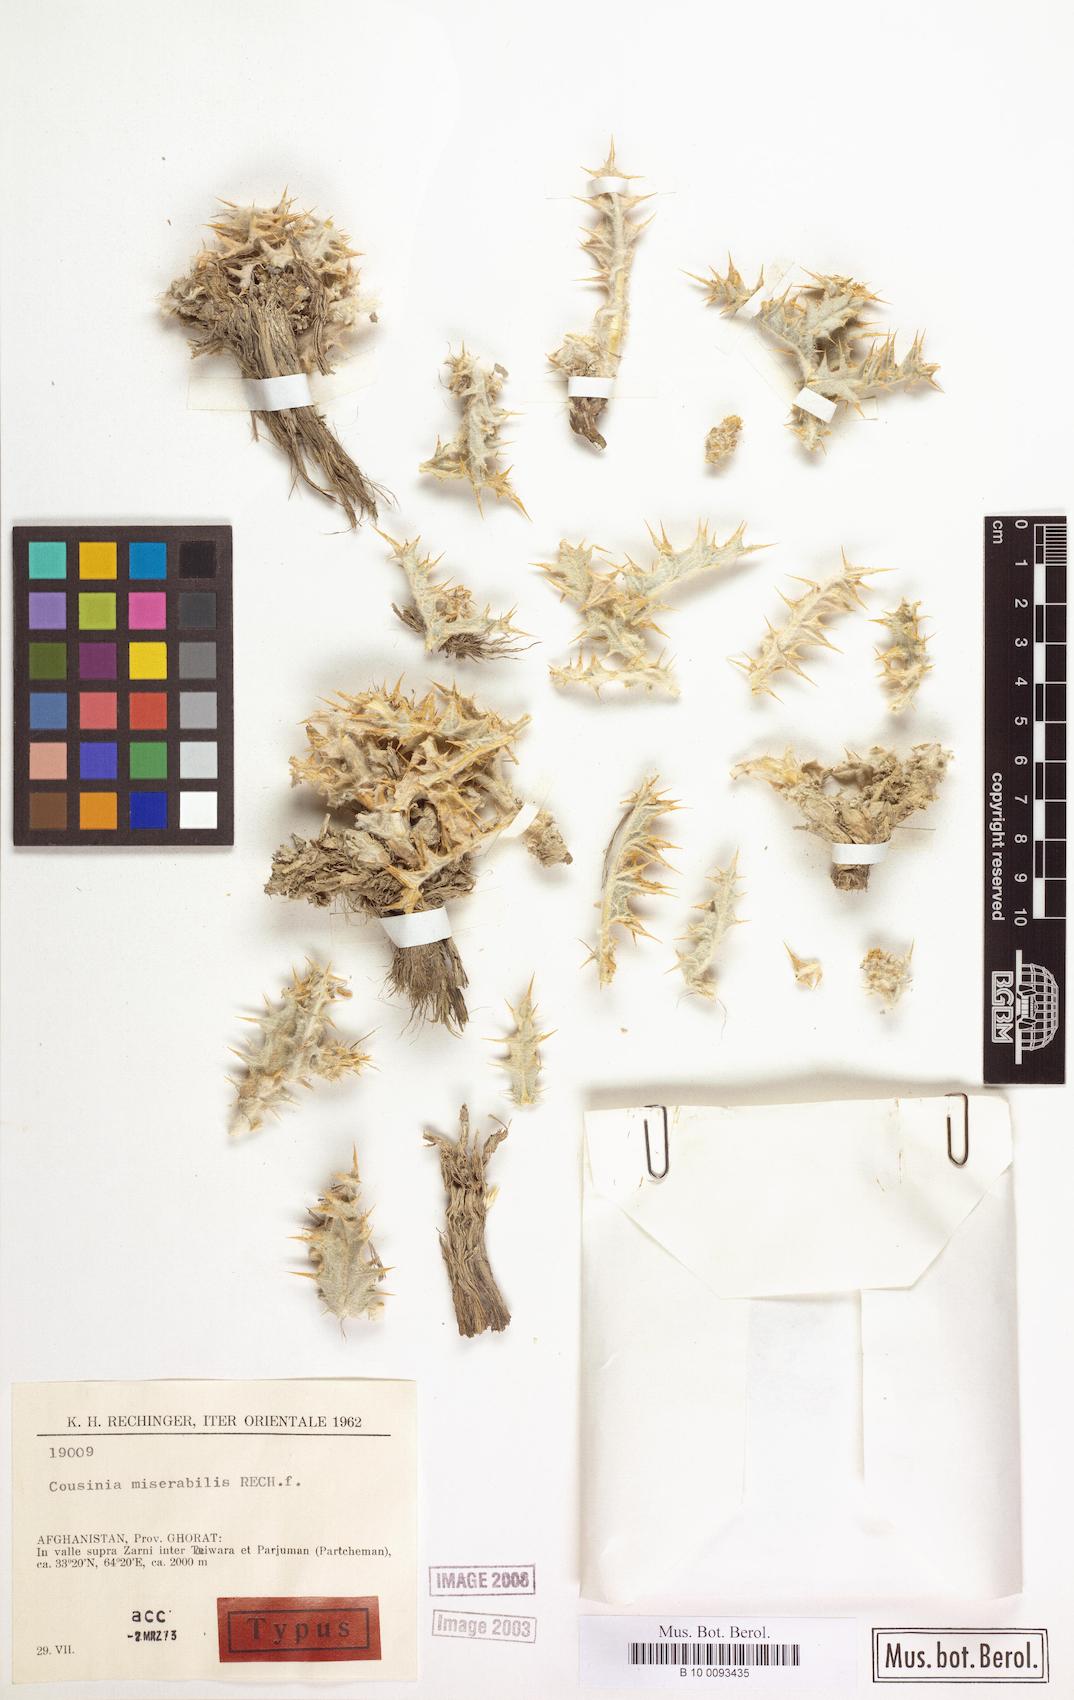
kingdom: Plantae
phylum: Tracheophyta
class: Magnoliopsida
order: Asterales
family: Asteraceae
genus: Cousinia
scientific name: Cousinia miserabilis
